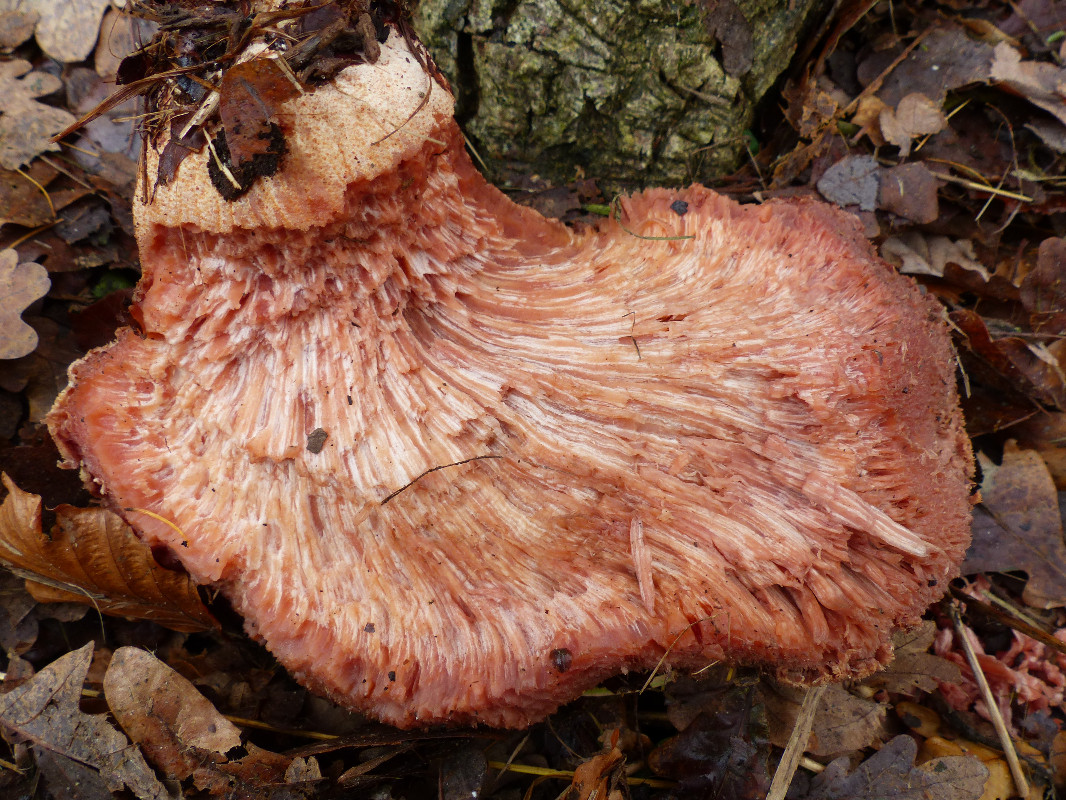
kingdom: Fungi
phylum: Basidiomycota
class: Agaricomycetes
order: Agaricales
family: Fistulinaceae
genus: Fistulina
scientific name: Fistulina hepatica
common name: oksetunge
